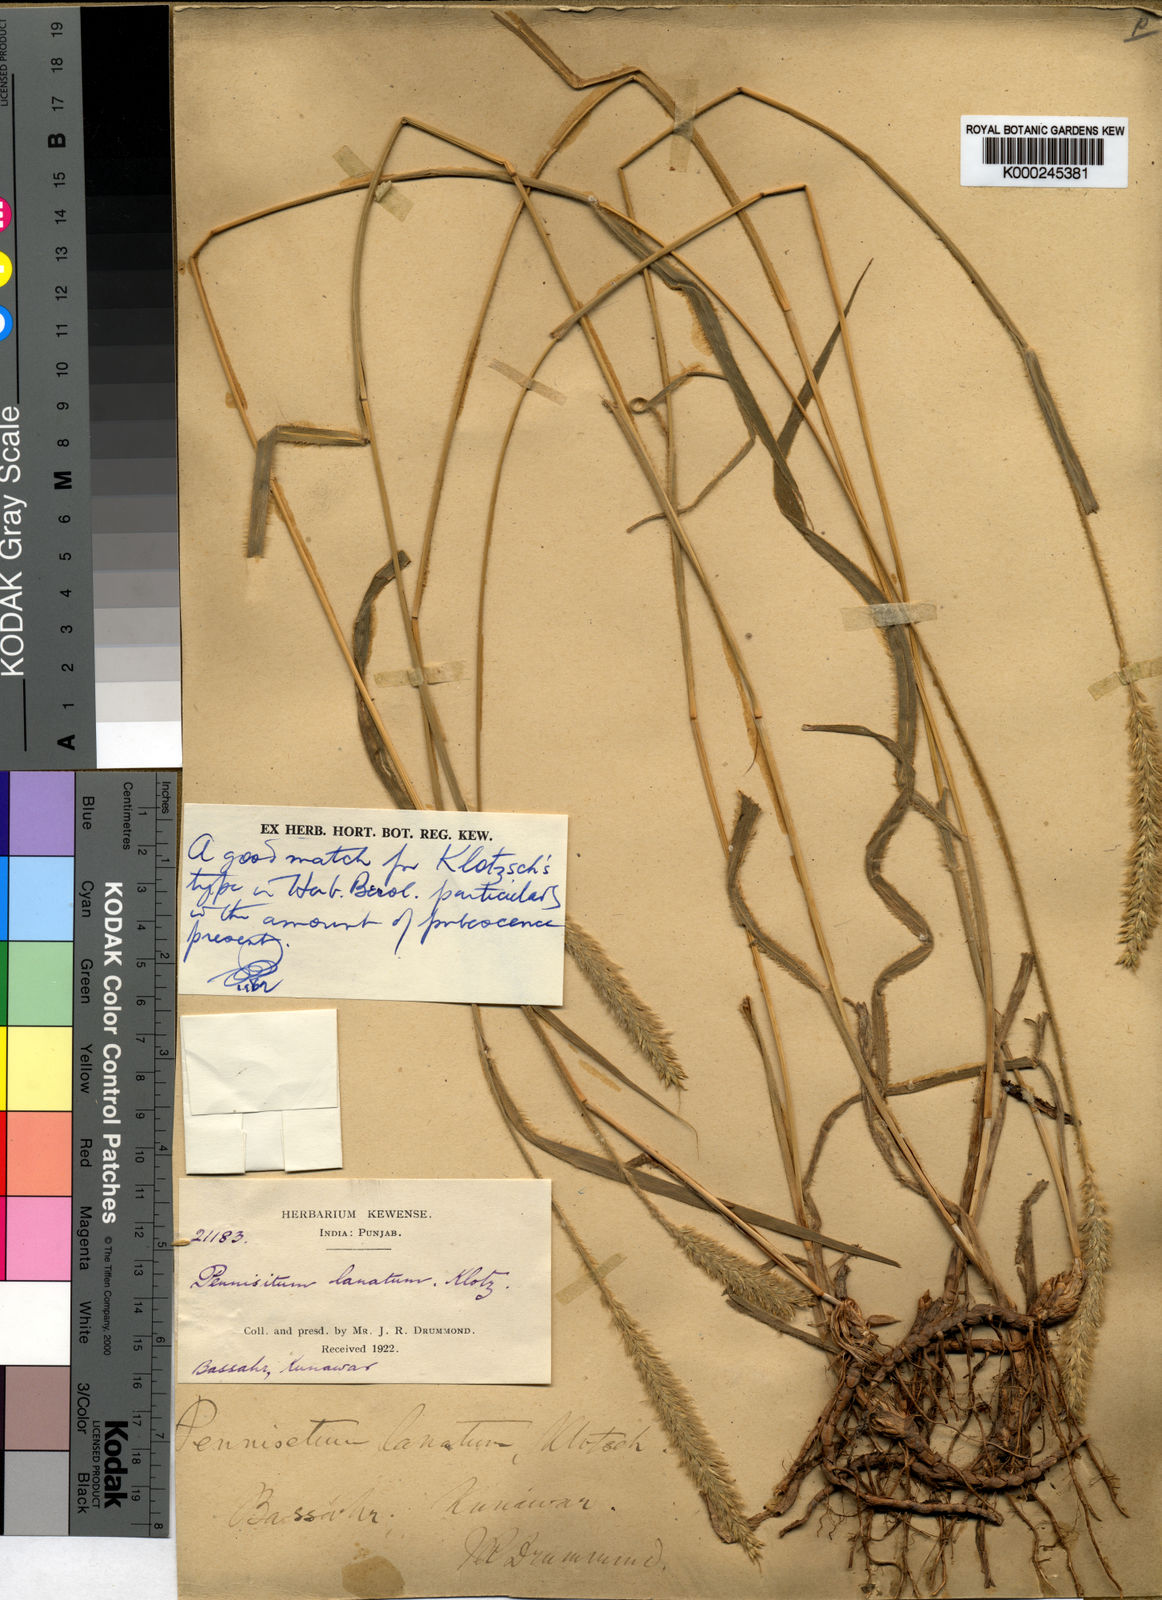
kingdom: Plantae
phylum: Tracheophyta
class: Liliopsida
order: Poales
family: Poaceae
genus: Cenchrus
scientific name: Cenchrus lanatus
